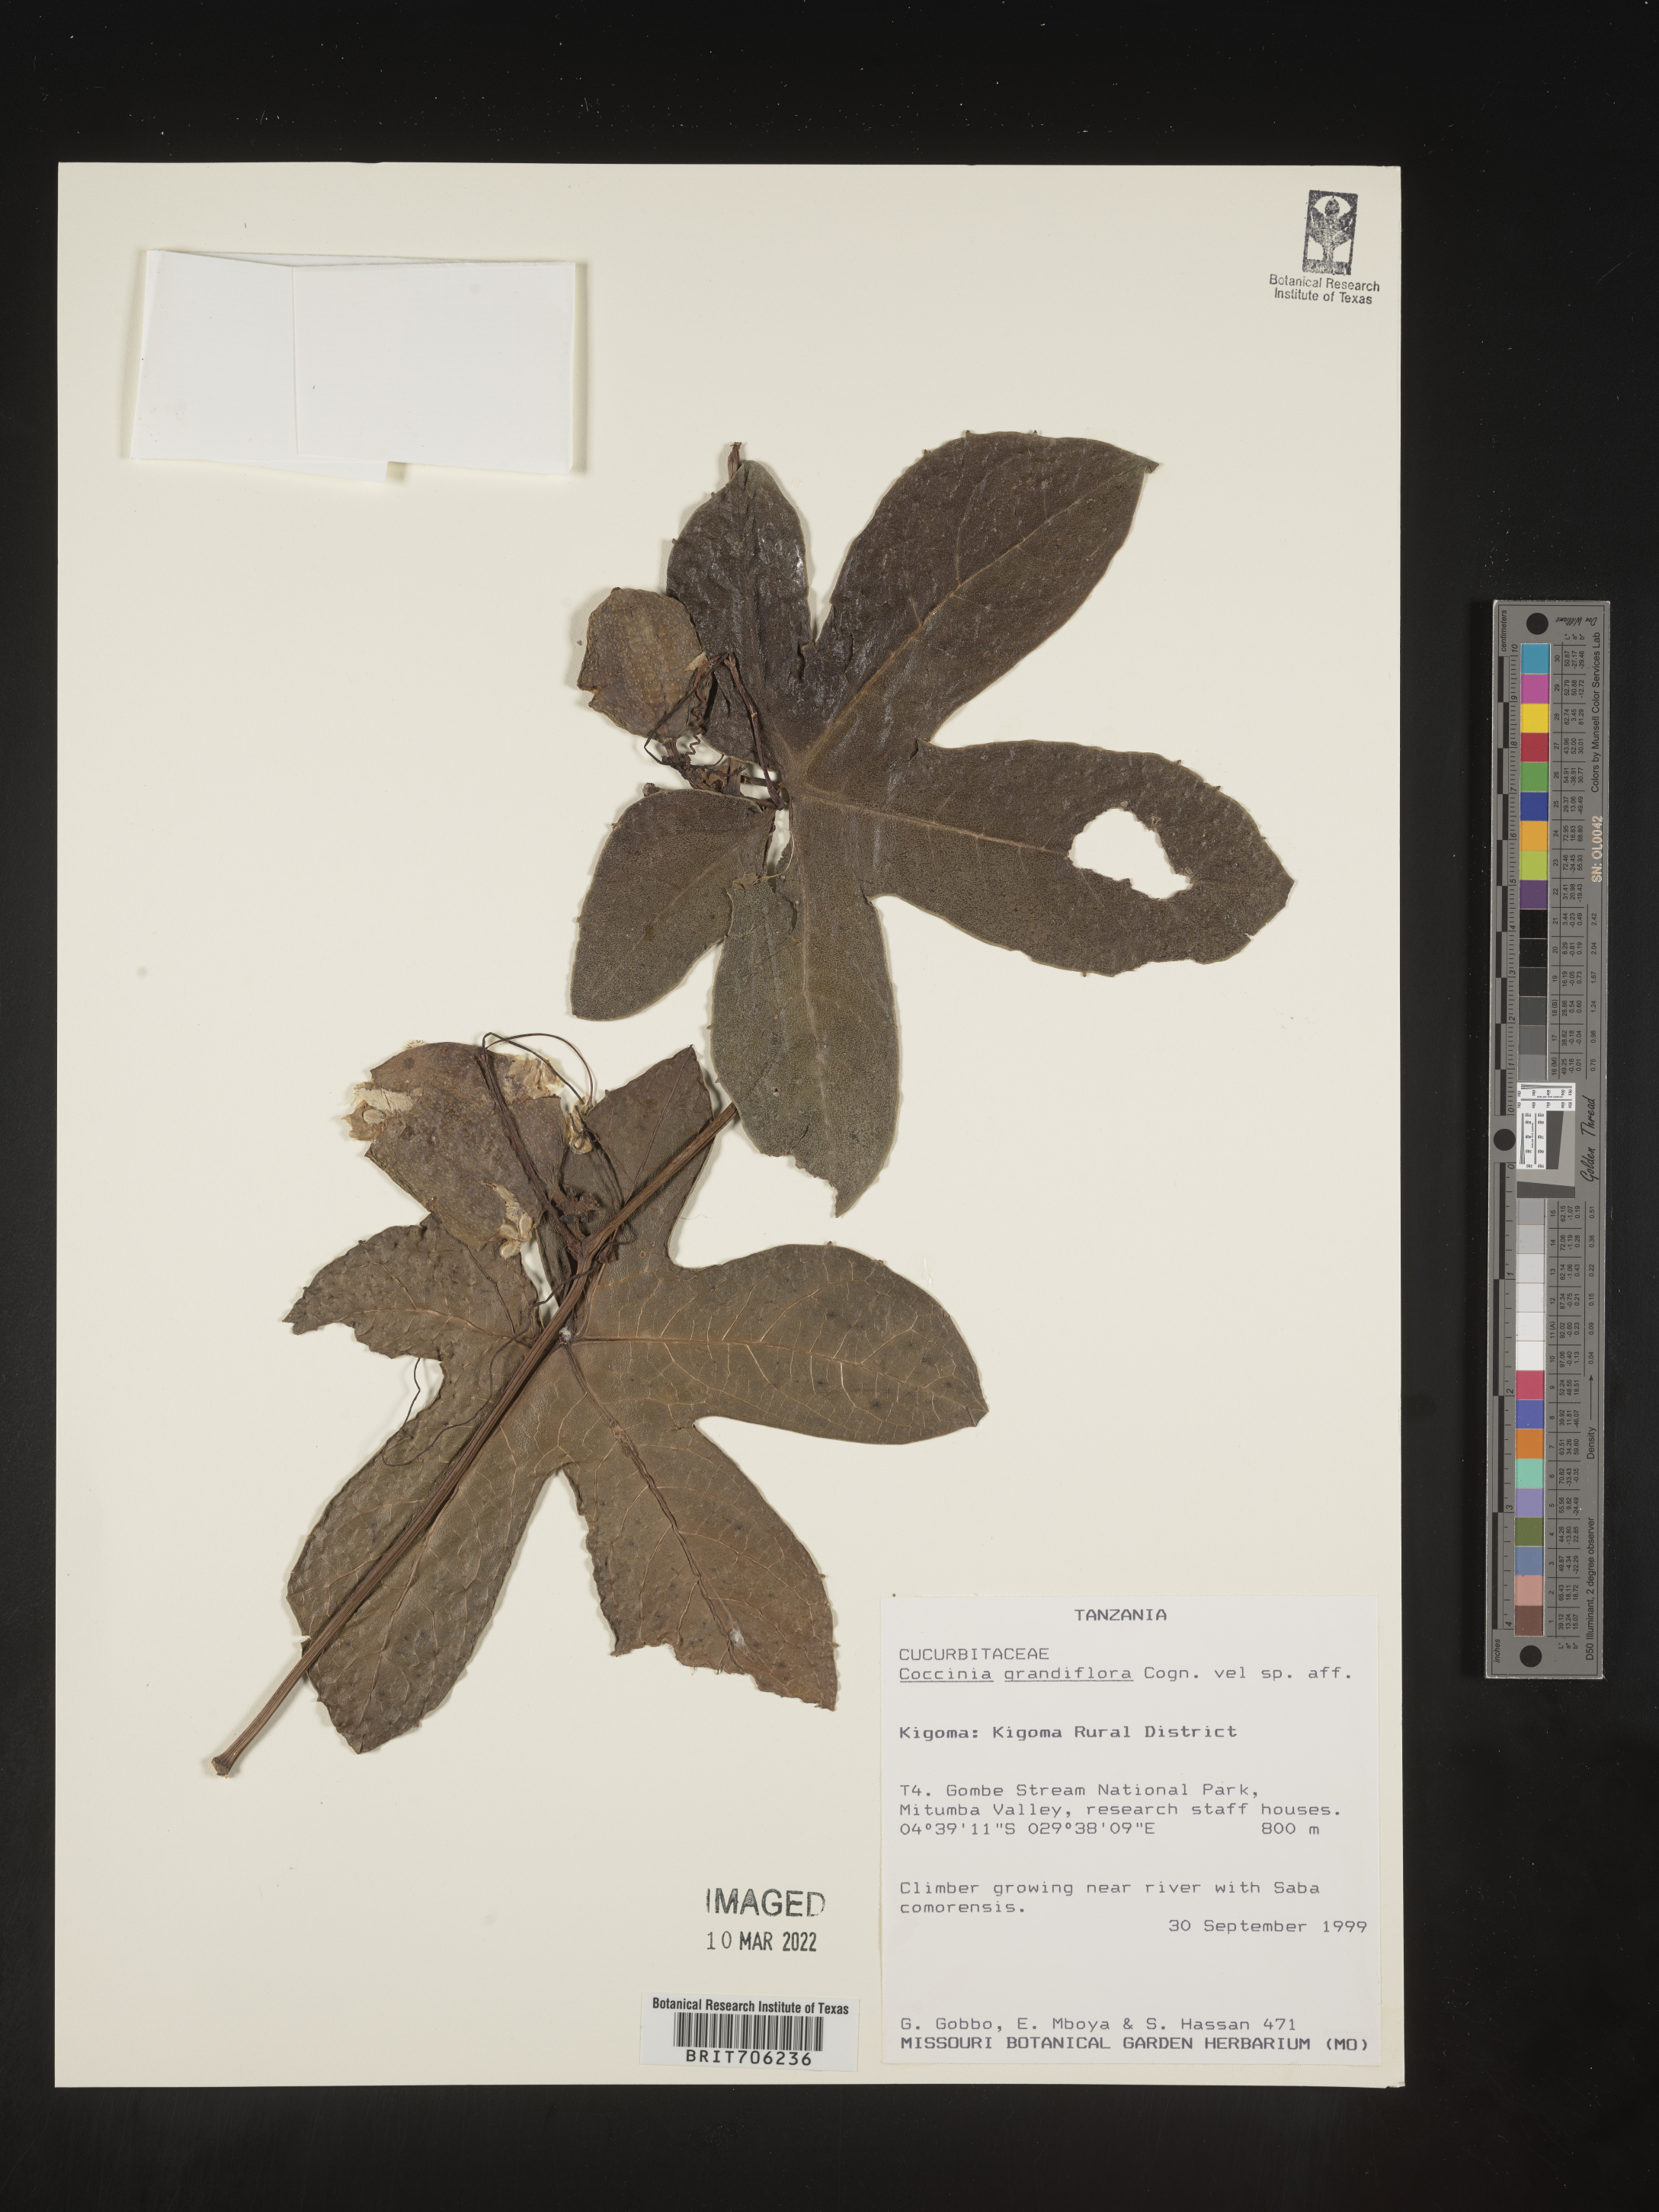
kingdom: Plantae
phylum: Tracheophyta
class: Magnoliopsida
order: Cucurbitales
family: Cucurbitaceae
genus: Coccinia
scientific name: Coccinia
